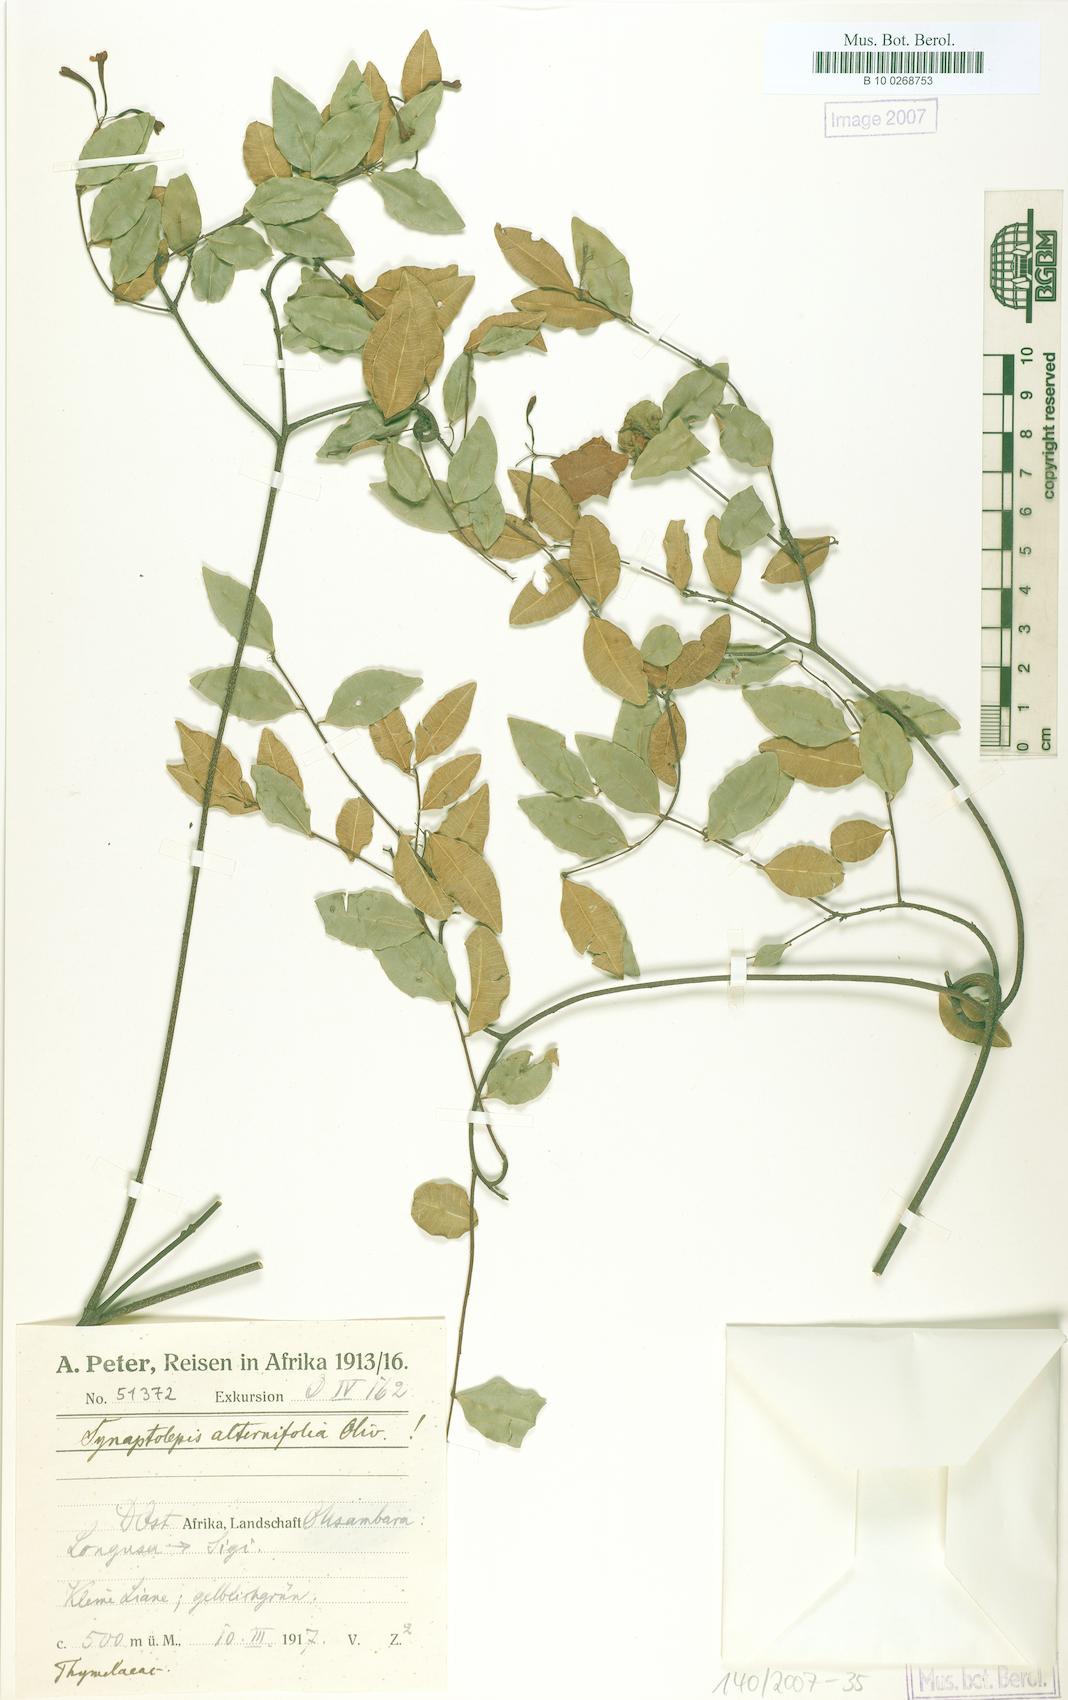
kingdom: Plantae
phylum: Tracheophyta
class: Magnoliopsida
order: Malvales
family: Thymelaeaceae
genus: Synaptolepis
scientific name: Synaptolepis alternifolia
